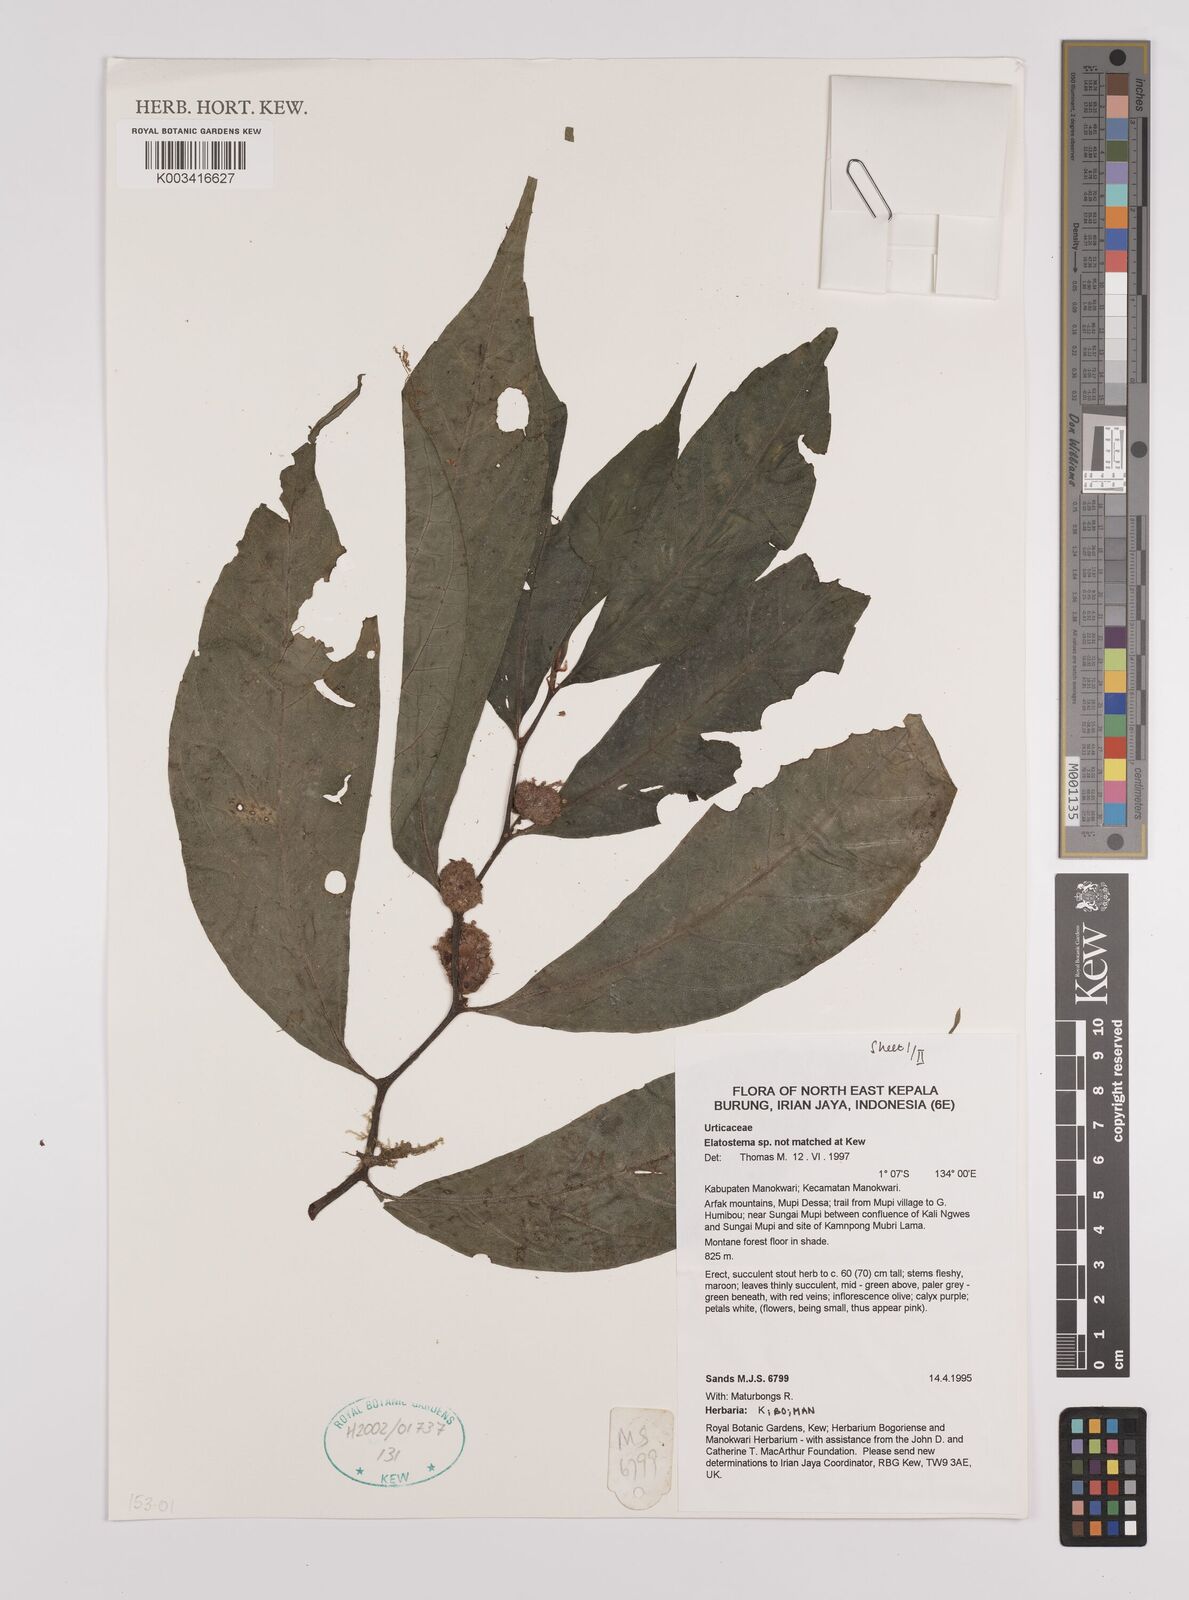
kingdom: Plantae
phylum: Tracheophyta
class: Magnoliopsida
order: Rosales
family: Urticaceae
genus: Elatostema
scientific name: Elatostema
